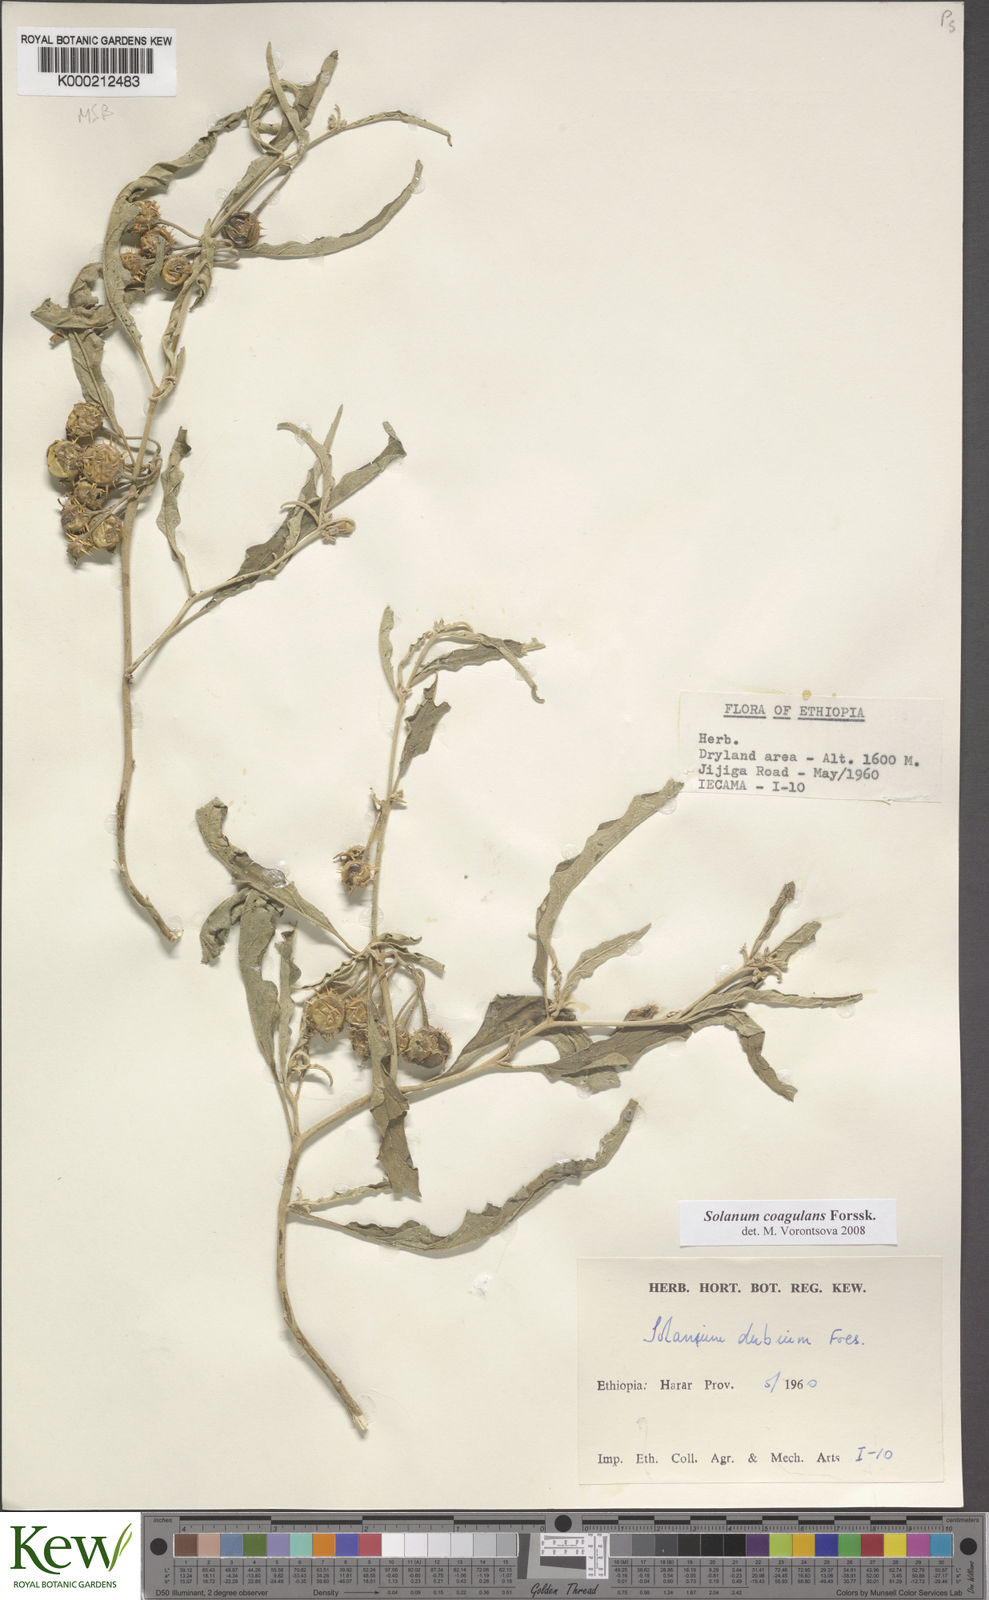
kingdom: Plantae
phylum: Tracheophyta
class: Magnoliopsida
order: Solanales
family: Solanaceae
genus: Solanum
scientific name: Solanum coagulans
